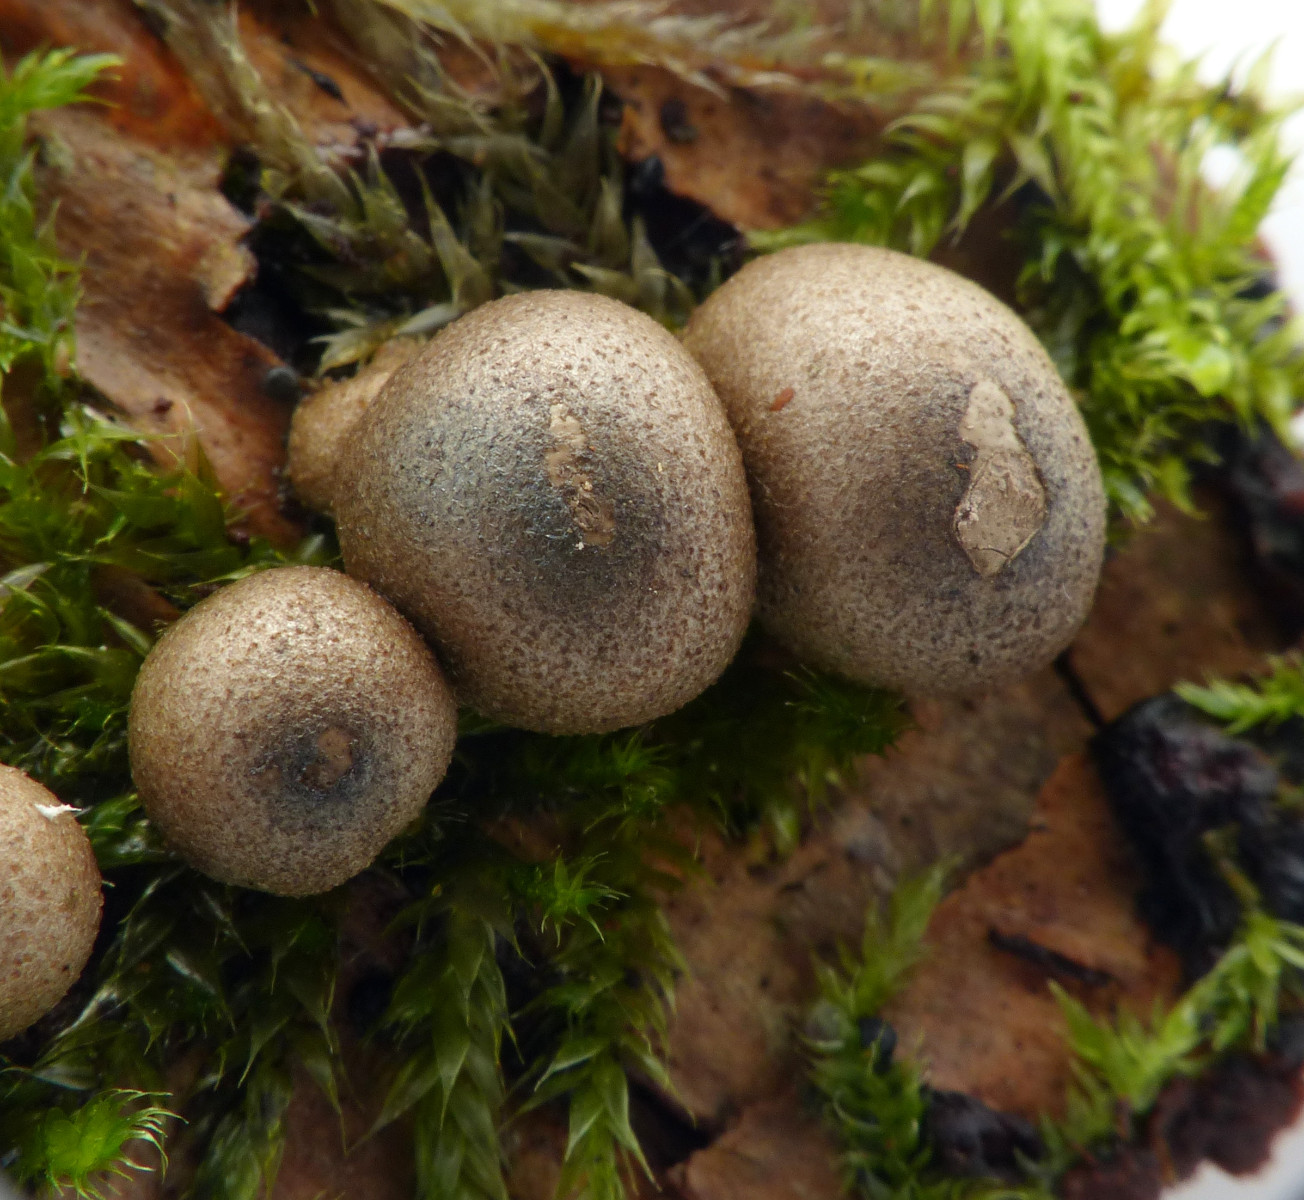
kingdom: Protozoa
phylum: Mycetozoa
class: Myxomycetes
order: Cribrariales
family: Tubiferaceae
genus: Lycogala
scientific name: Lycogala epidendrum
